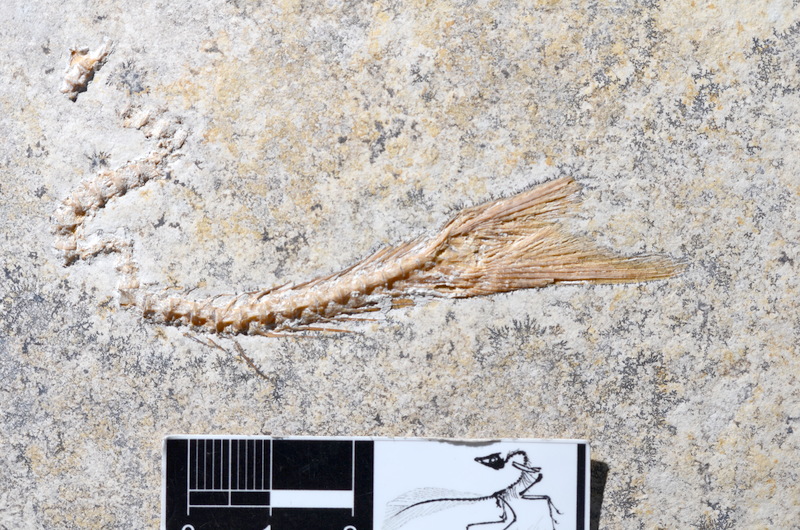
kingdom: Animalia
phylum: Chordata
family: Ascalaboidae
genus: Tharsis
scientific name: Tharsis dubius
